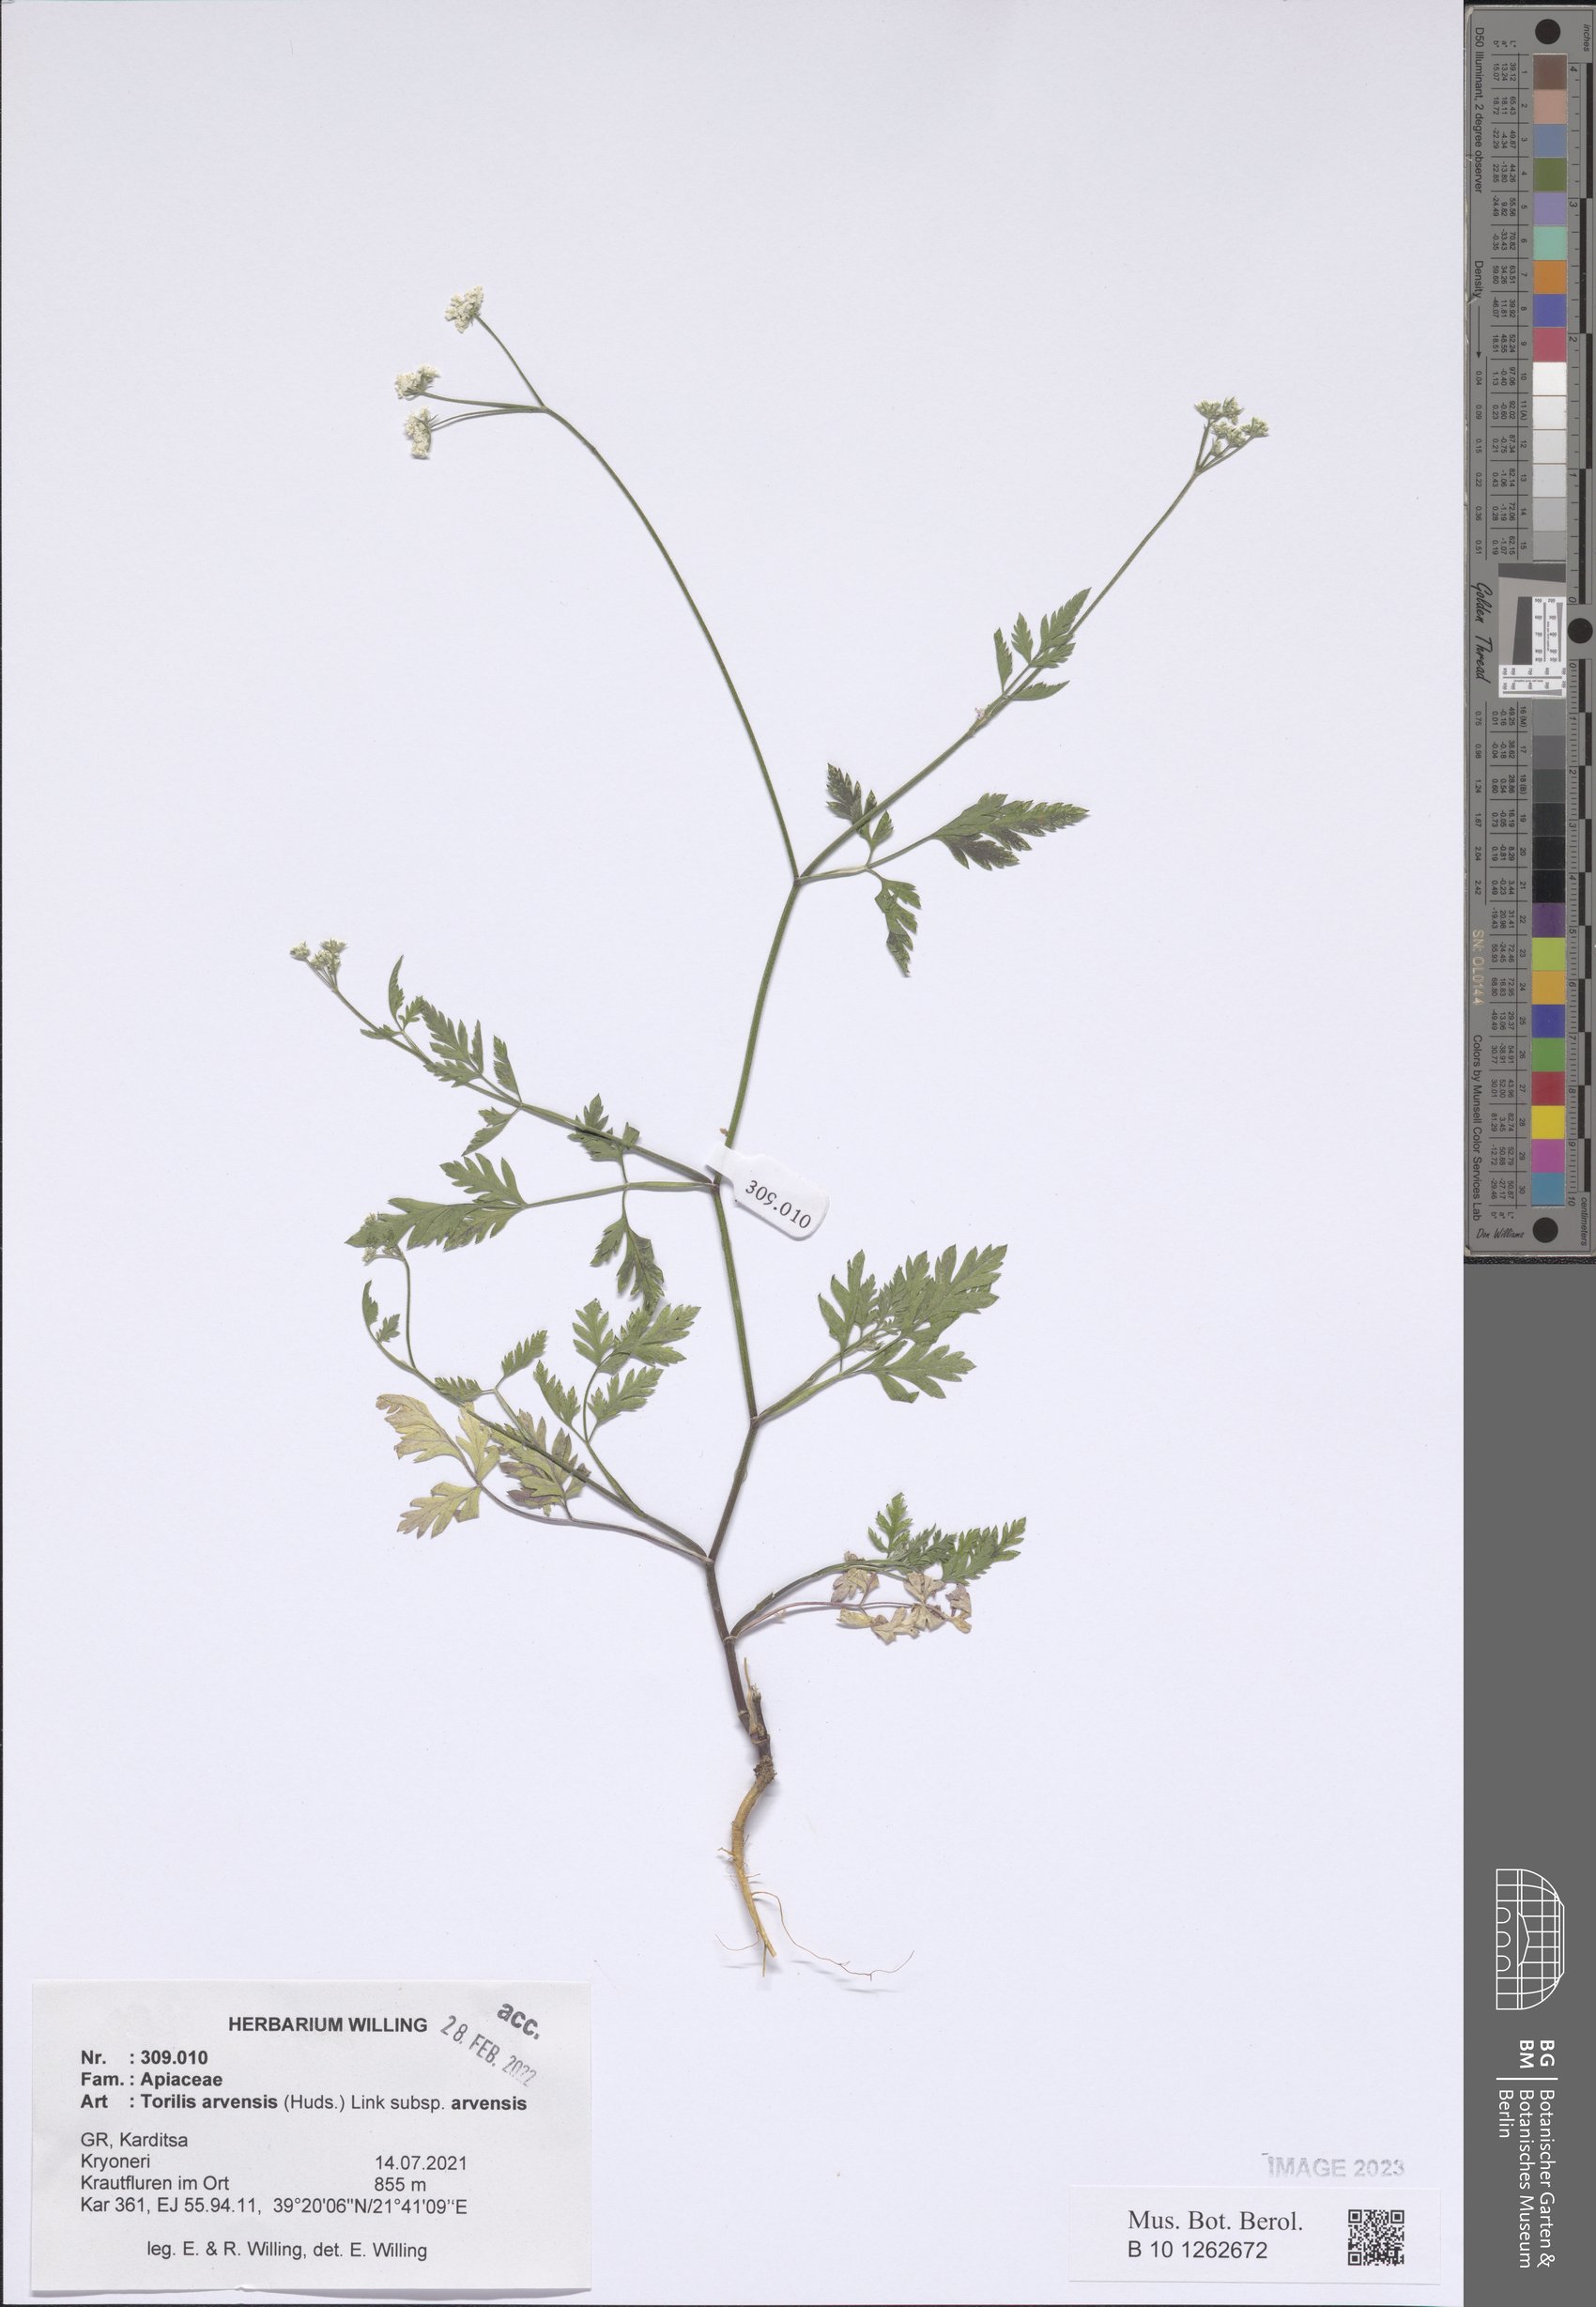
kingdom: Plantae
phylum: Tracheophyta
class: Magnoliopsida
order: Apiales
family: Apiaceae
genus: Torilis
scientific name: Torilis arvensis
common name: Spreading hedge-parsley
